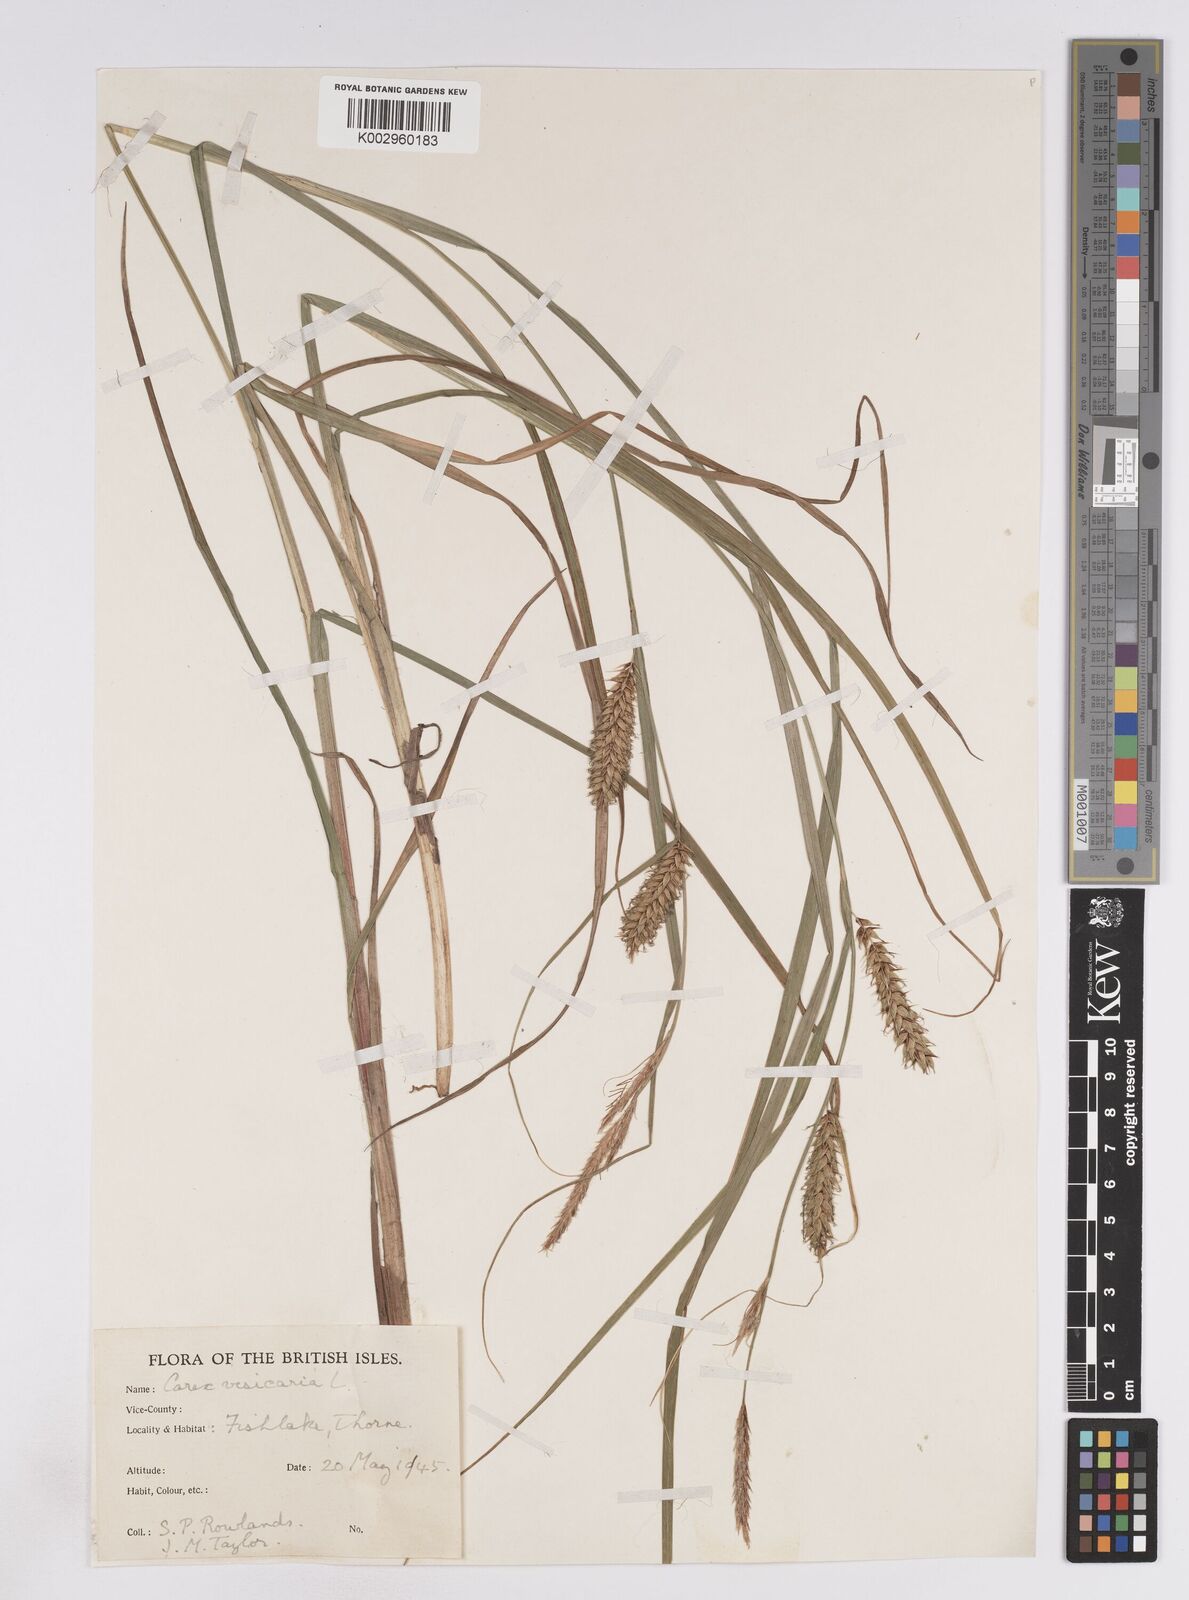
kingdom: Plantae
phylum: Tracheophyta
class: Liliopsida
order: Poales
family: Cyperaceae
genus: Carex
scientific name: Carex vesicaria
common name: Bladder-sedge
